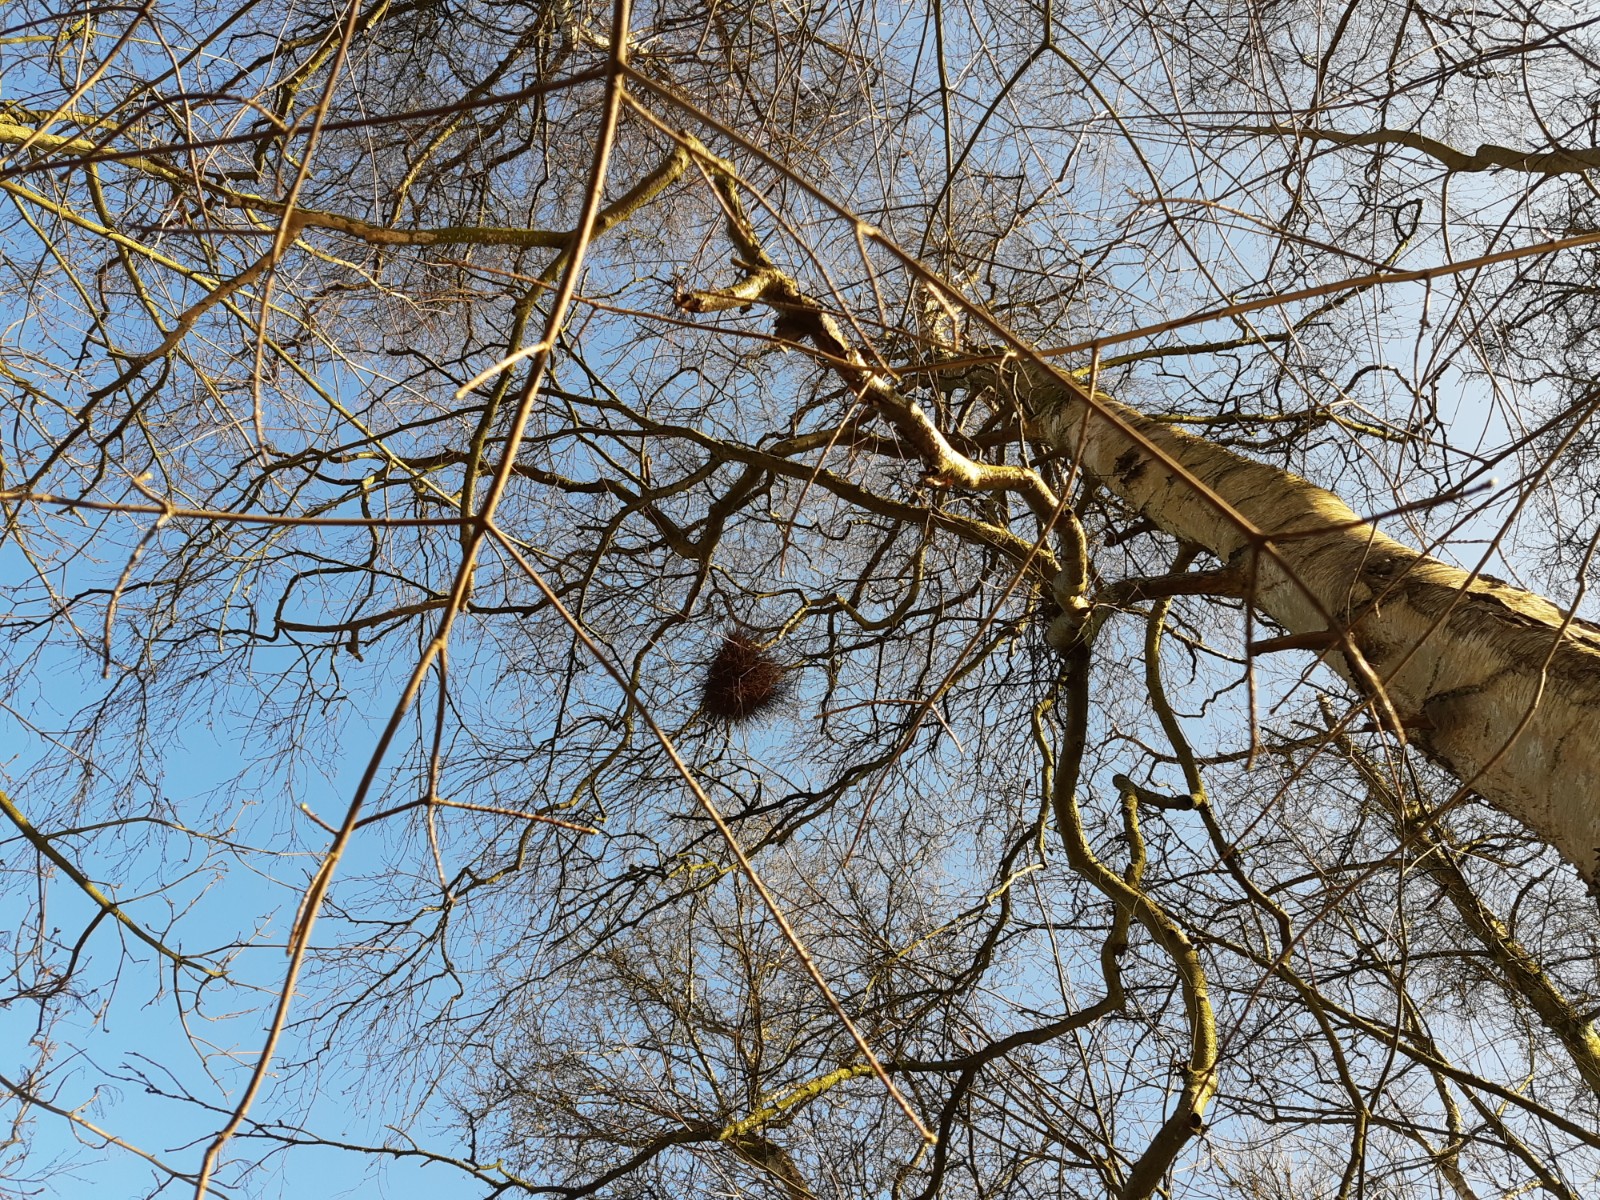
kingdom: Fungi
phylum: Ascomycota
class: Taphrinomycetes
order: Taphrinales
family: Taphrinaceae
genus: Taphrina
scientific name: Taphrina betulina
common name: hekse-sækdug
